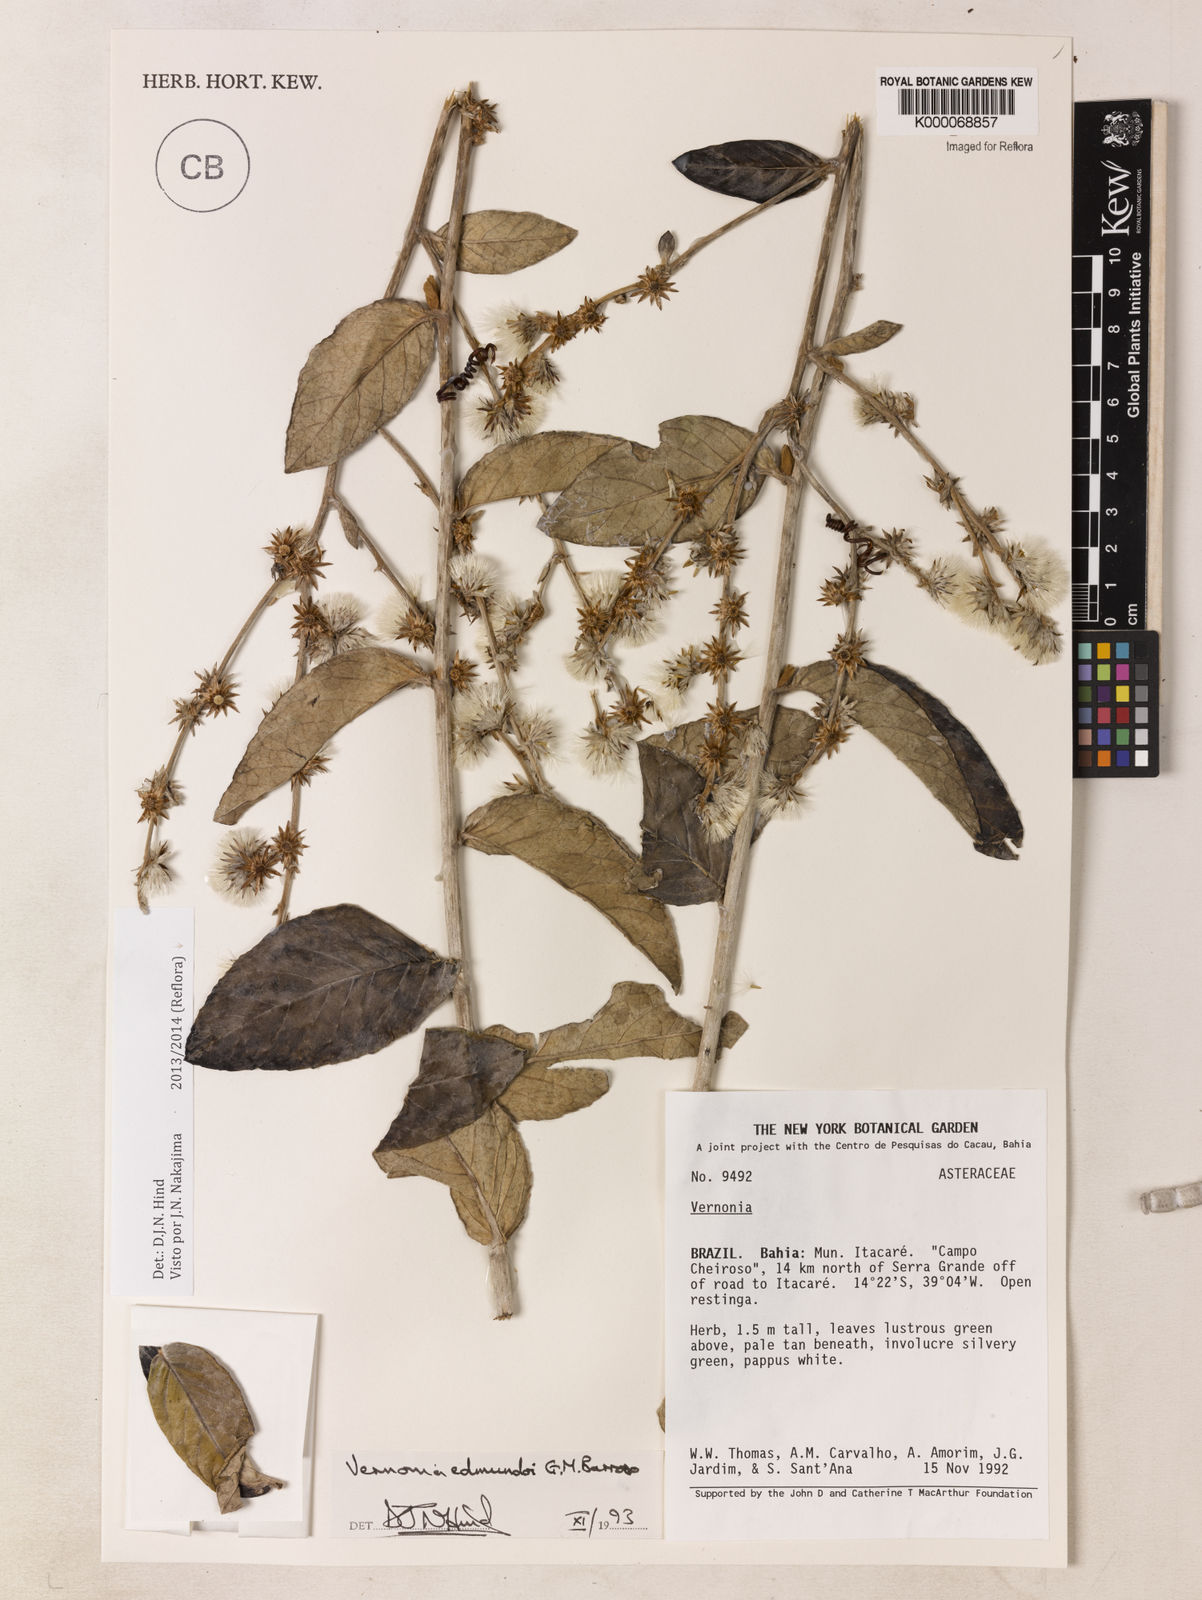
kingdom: Plantae
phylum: Tracheophyta
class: Magnoliopsida
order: Asterales
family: Asteraceae
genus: Lepidaploa
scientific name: Lepidaploa edmundoi
